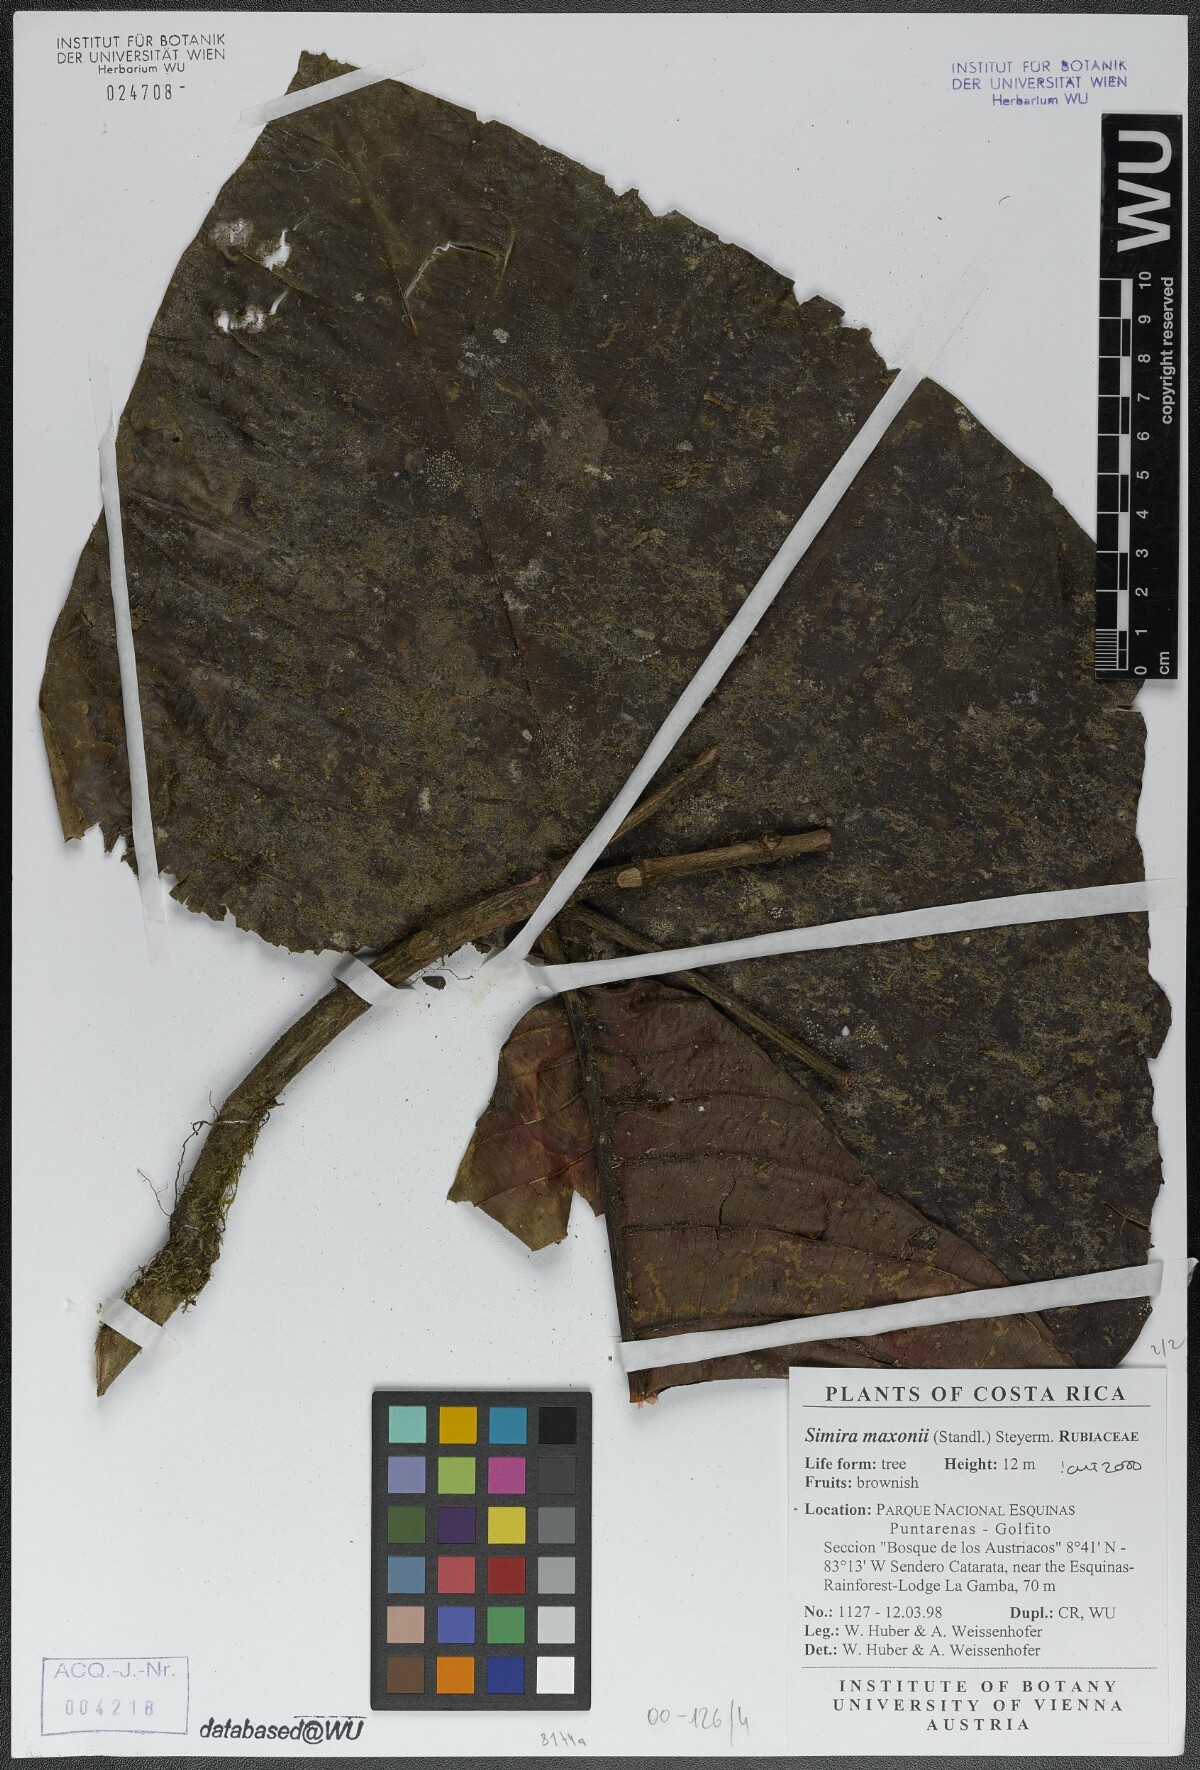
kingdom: Plantae
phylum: Tracheophyta
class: Magnoliopsida
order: Gentianales
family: Rubiaceae
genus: Simira
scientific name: Simira maxonii
